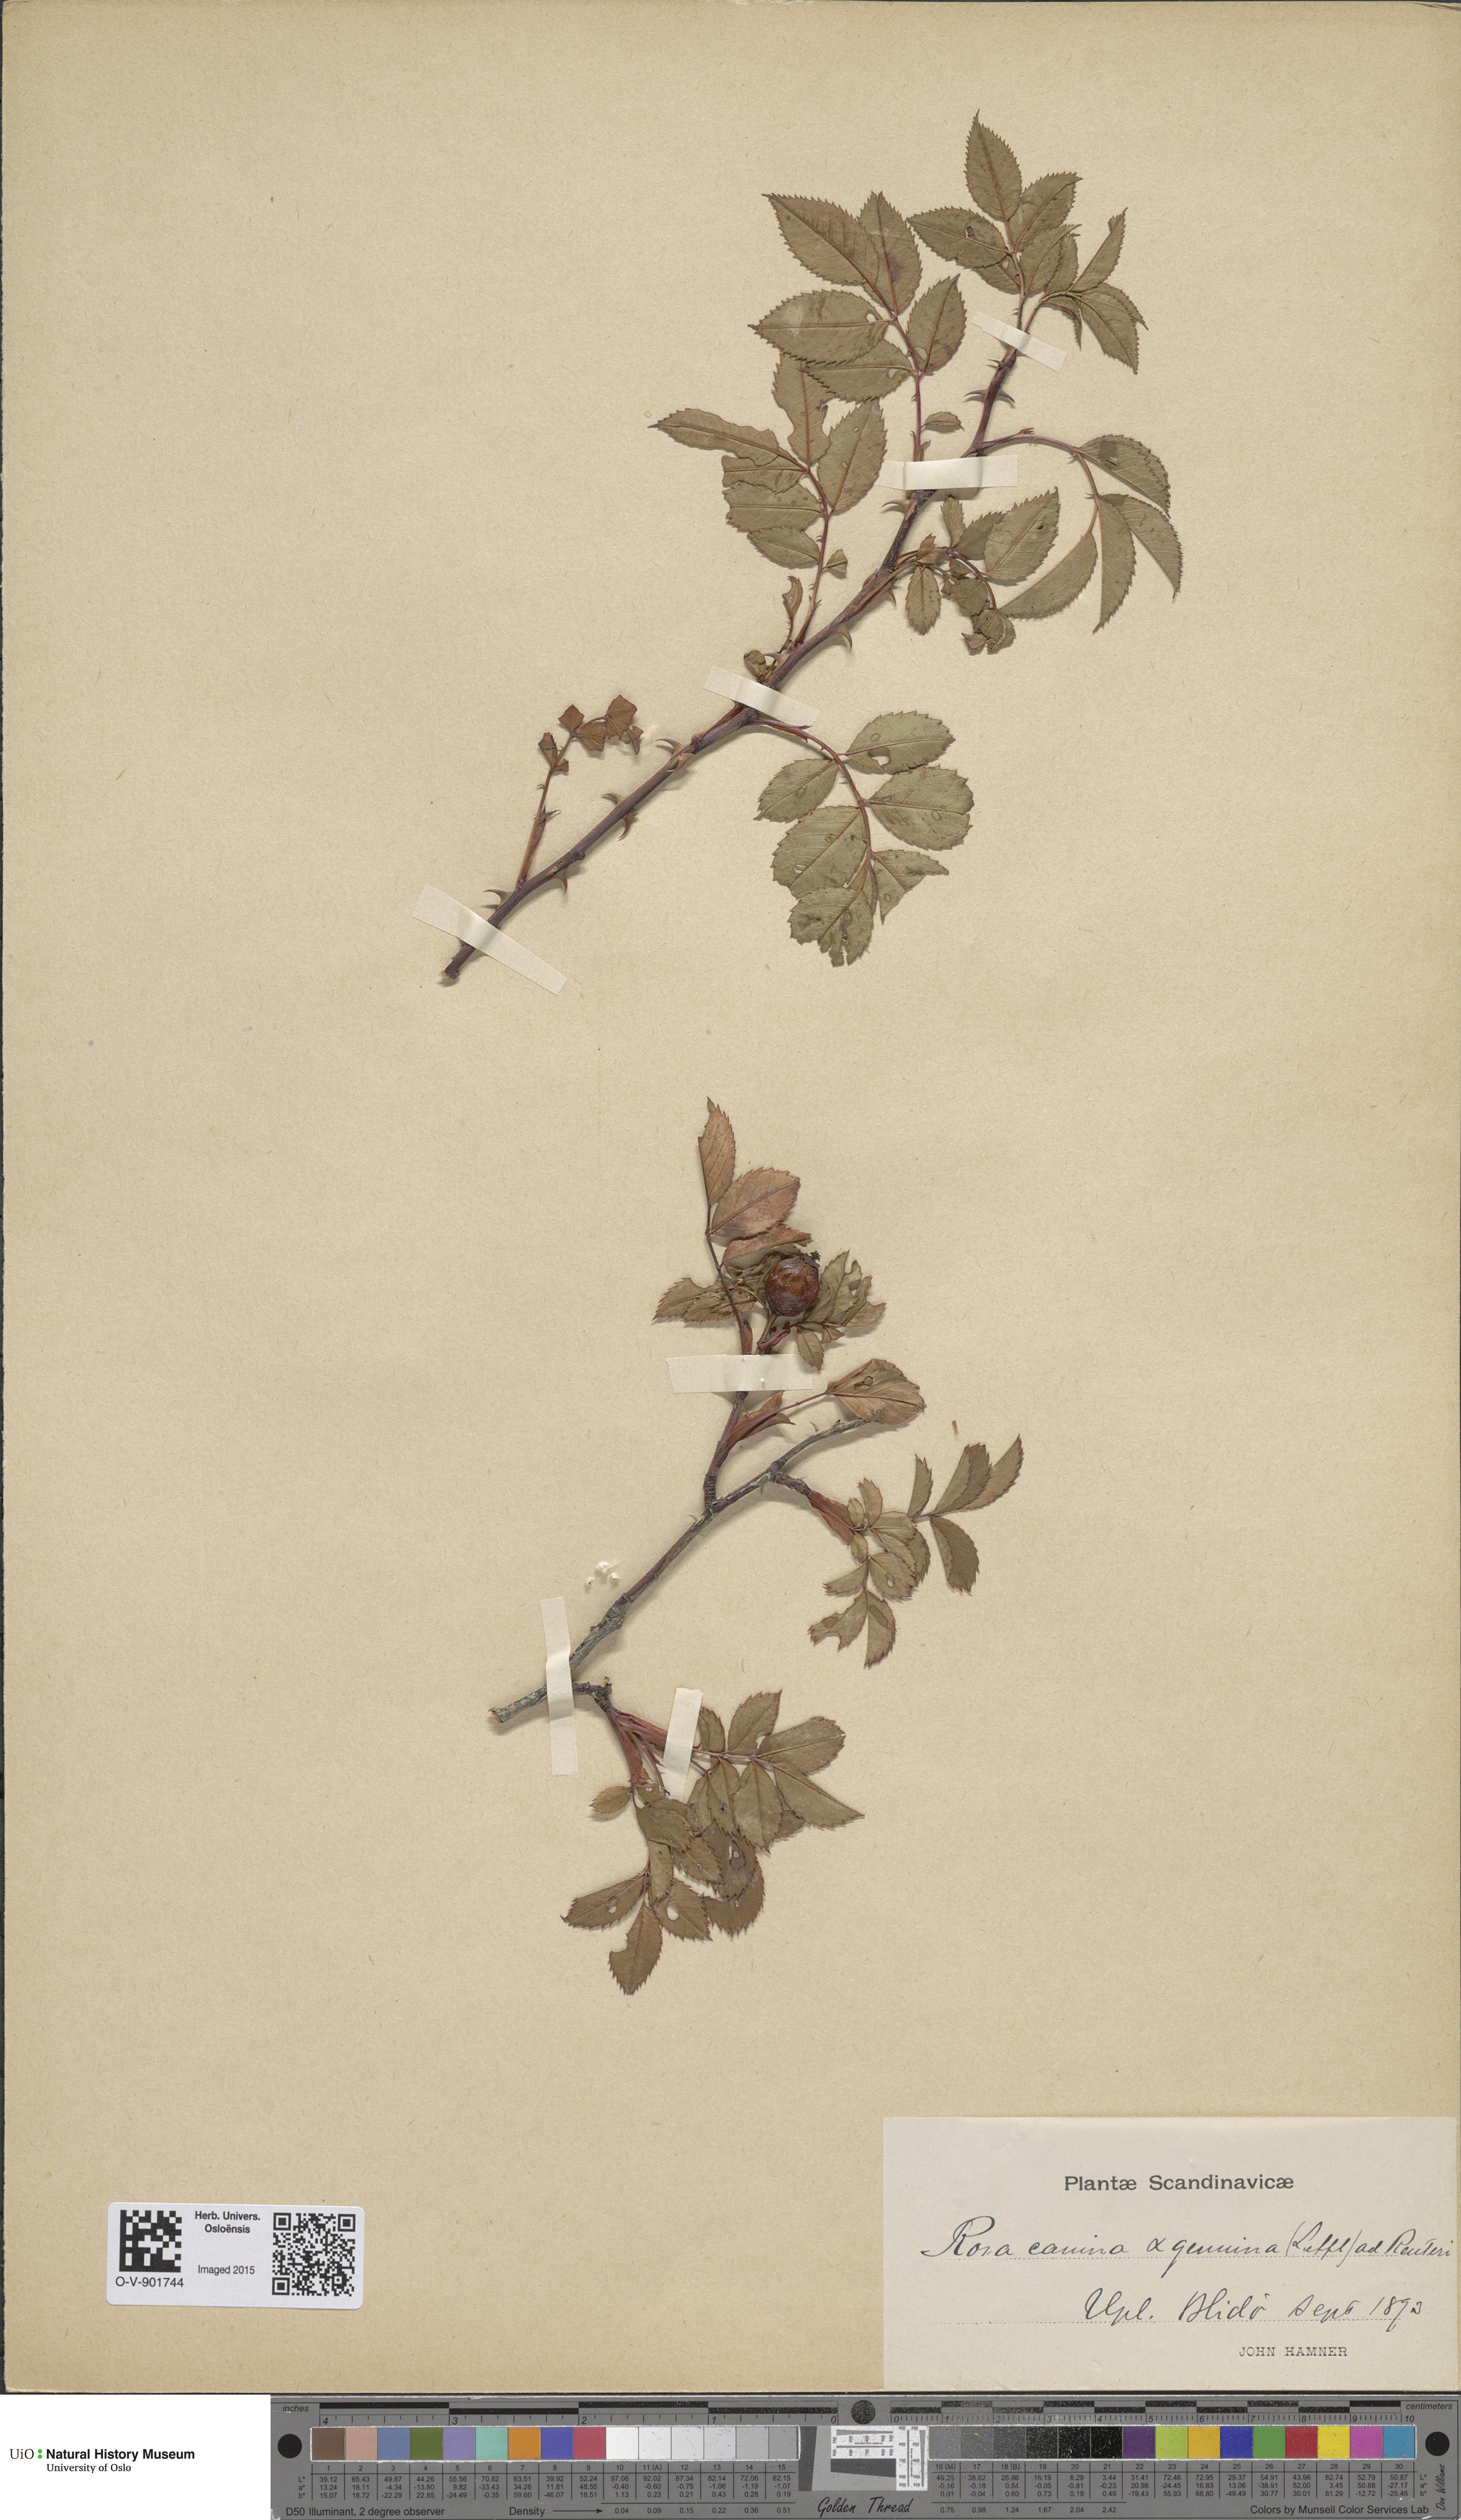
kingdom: Plantae
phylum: Tracheophyta
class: Magnoliopsida
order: Rosales
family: Rosaceae
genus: Rosa
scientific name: Rosa canina
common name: Dog rose
